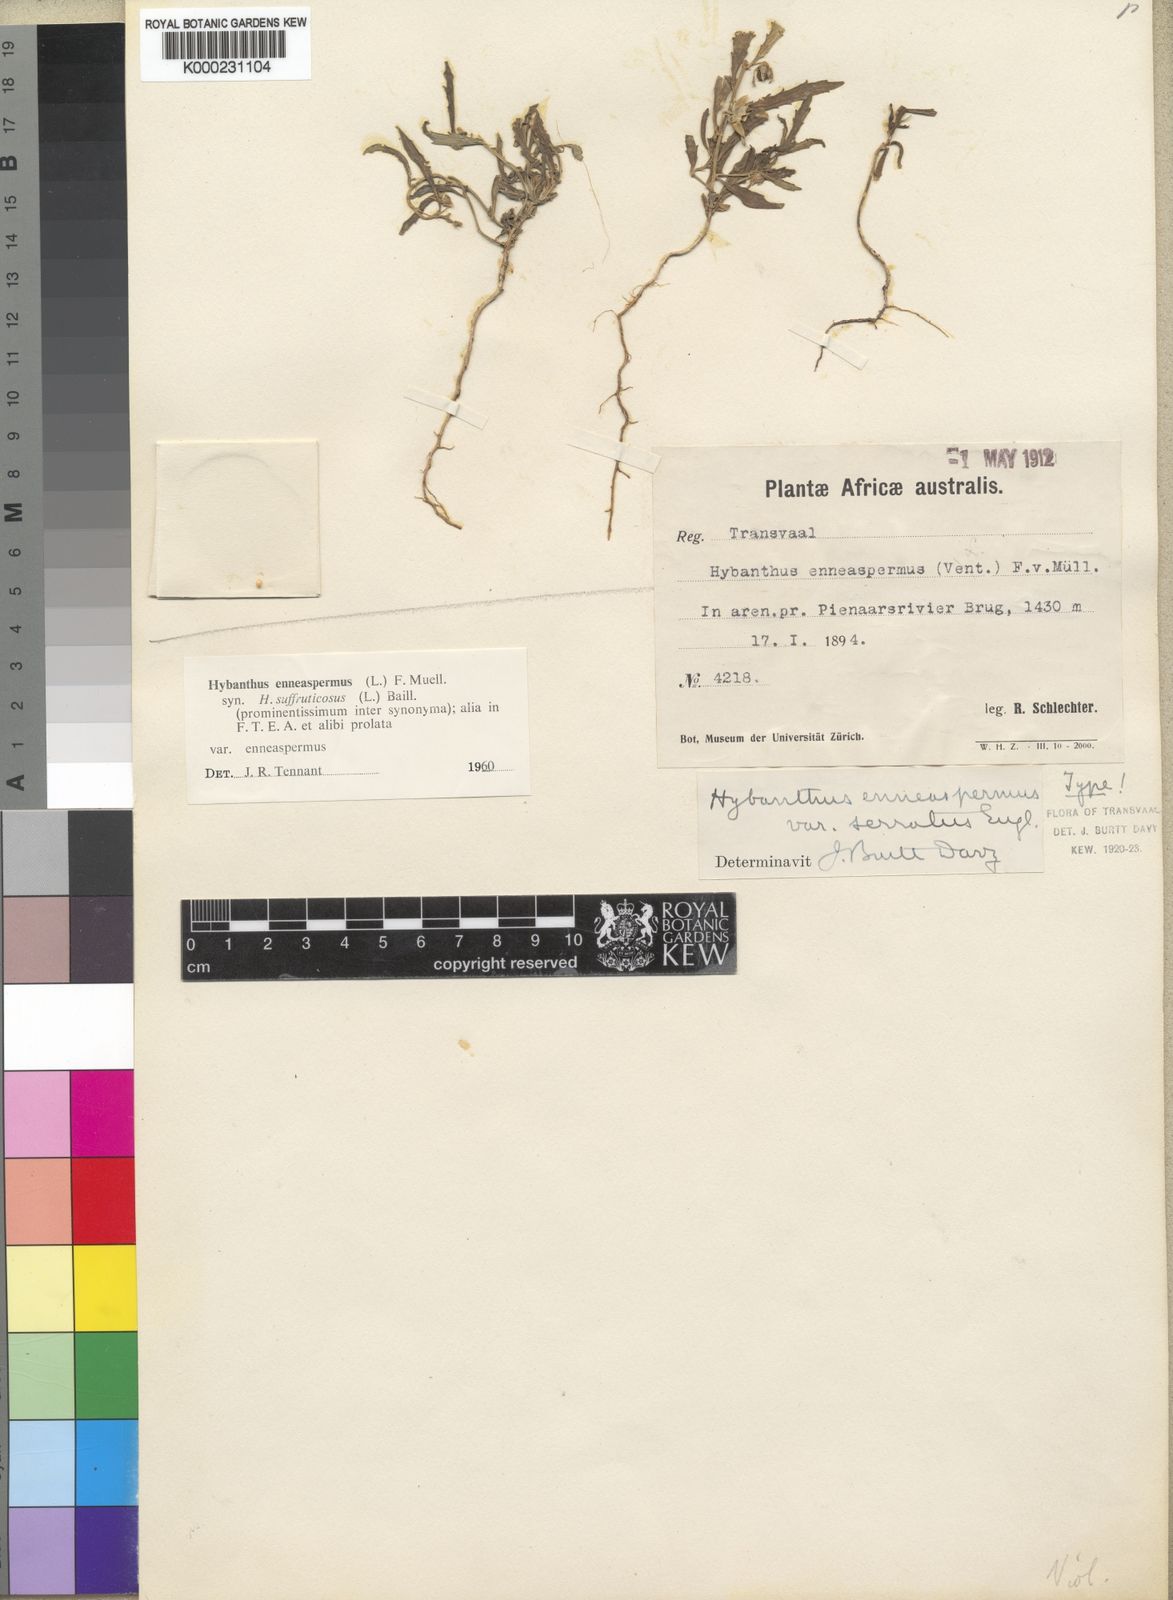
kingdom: Plantae
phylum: Tracheophyta
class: Magnoliopsida
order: Malpighiales
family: Violaceae
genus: Pigea
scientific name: Pigea enneasperma
